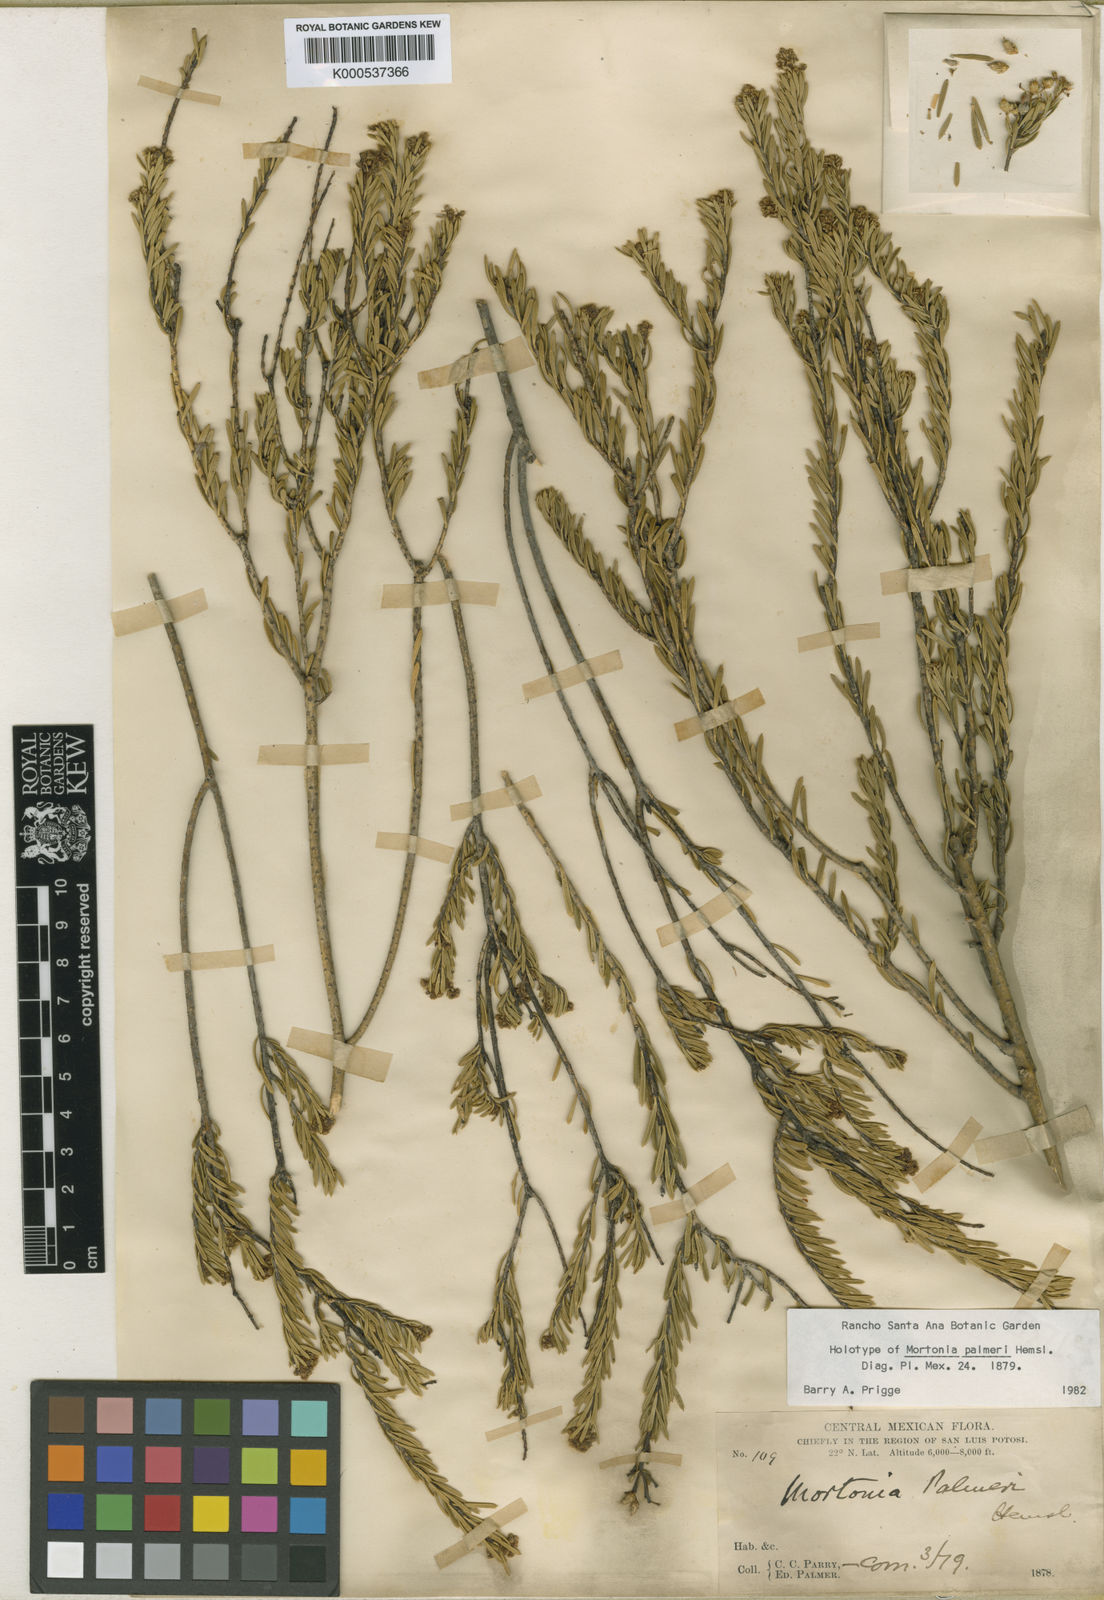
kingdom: Plantae
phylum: Tracheophyta
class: Magnoliopsida
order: Celastrales
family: Celastraceae
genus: Mortonia
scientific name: Mortonia greggii
